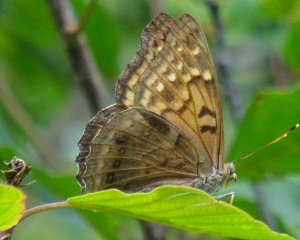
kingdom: Animalia
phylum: Arthropoda
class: Insecta
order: Lepidoptera
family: Nymphalidae
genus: Asterocampa
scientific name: Asterocampa clyton
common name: Tawny Emperor
